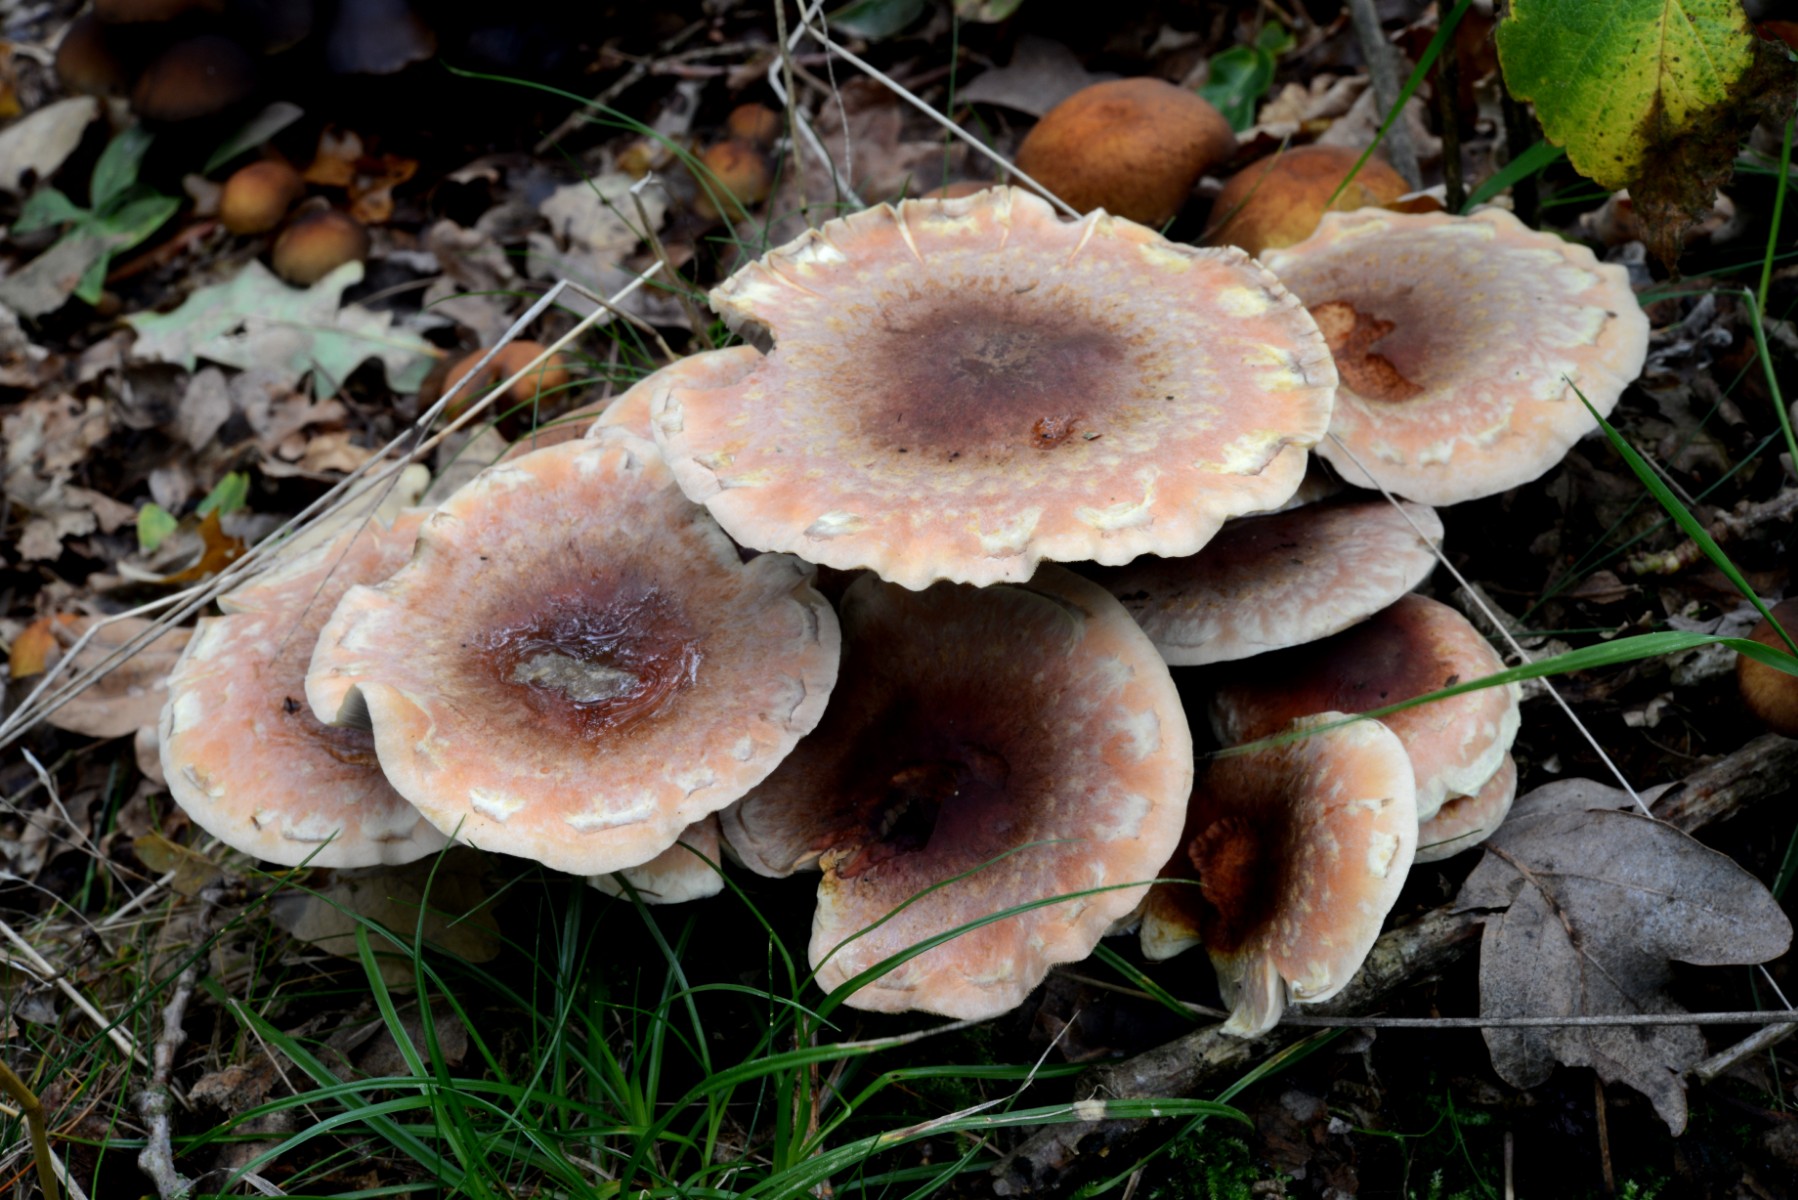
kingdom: Fungi
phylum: Basidiomycota
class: Agaricomycetes
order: Agaricales
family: Strophariaceae
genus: Hypholoma
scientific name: Hypholoma lateritium
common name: teglrød svovlhat
